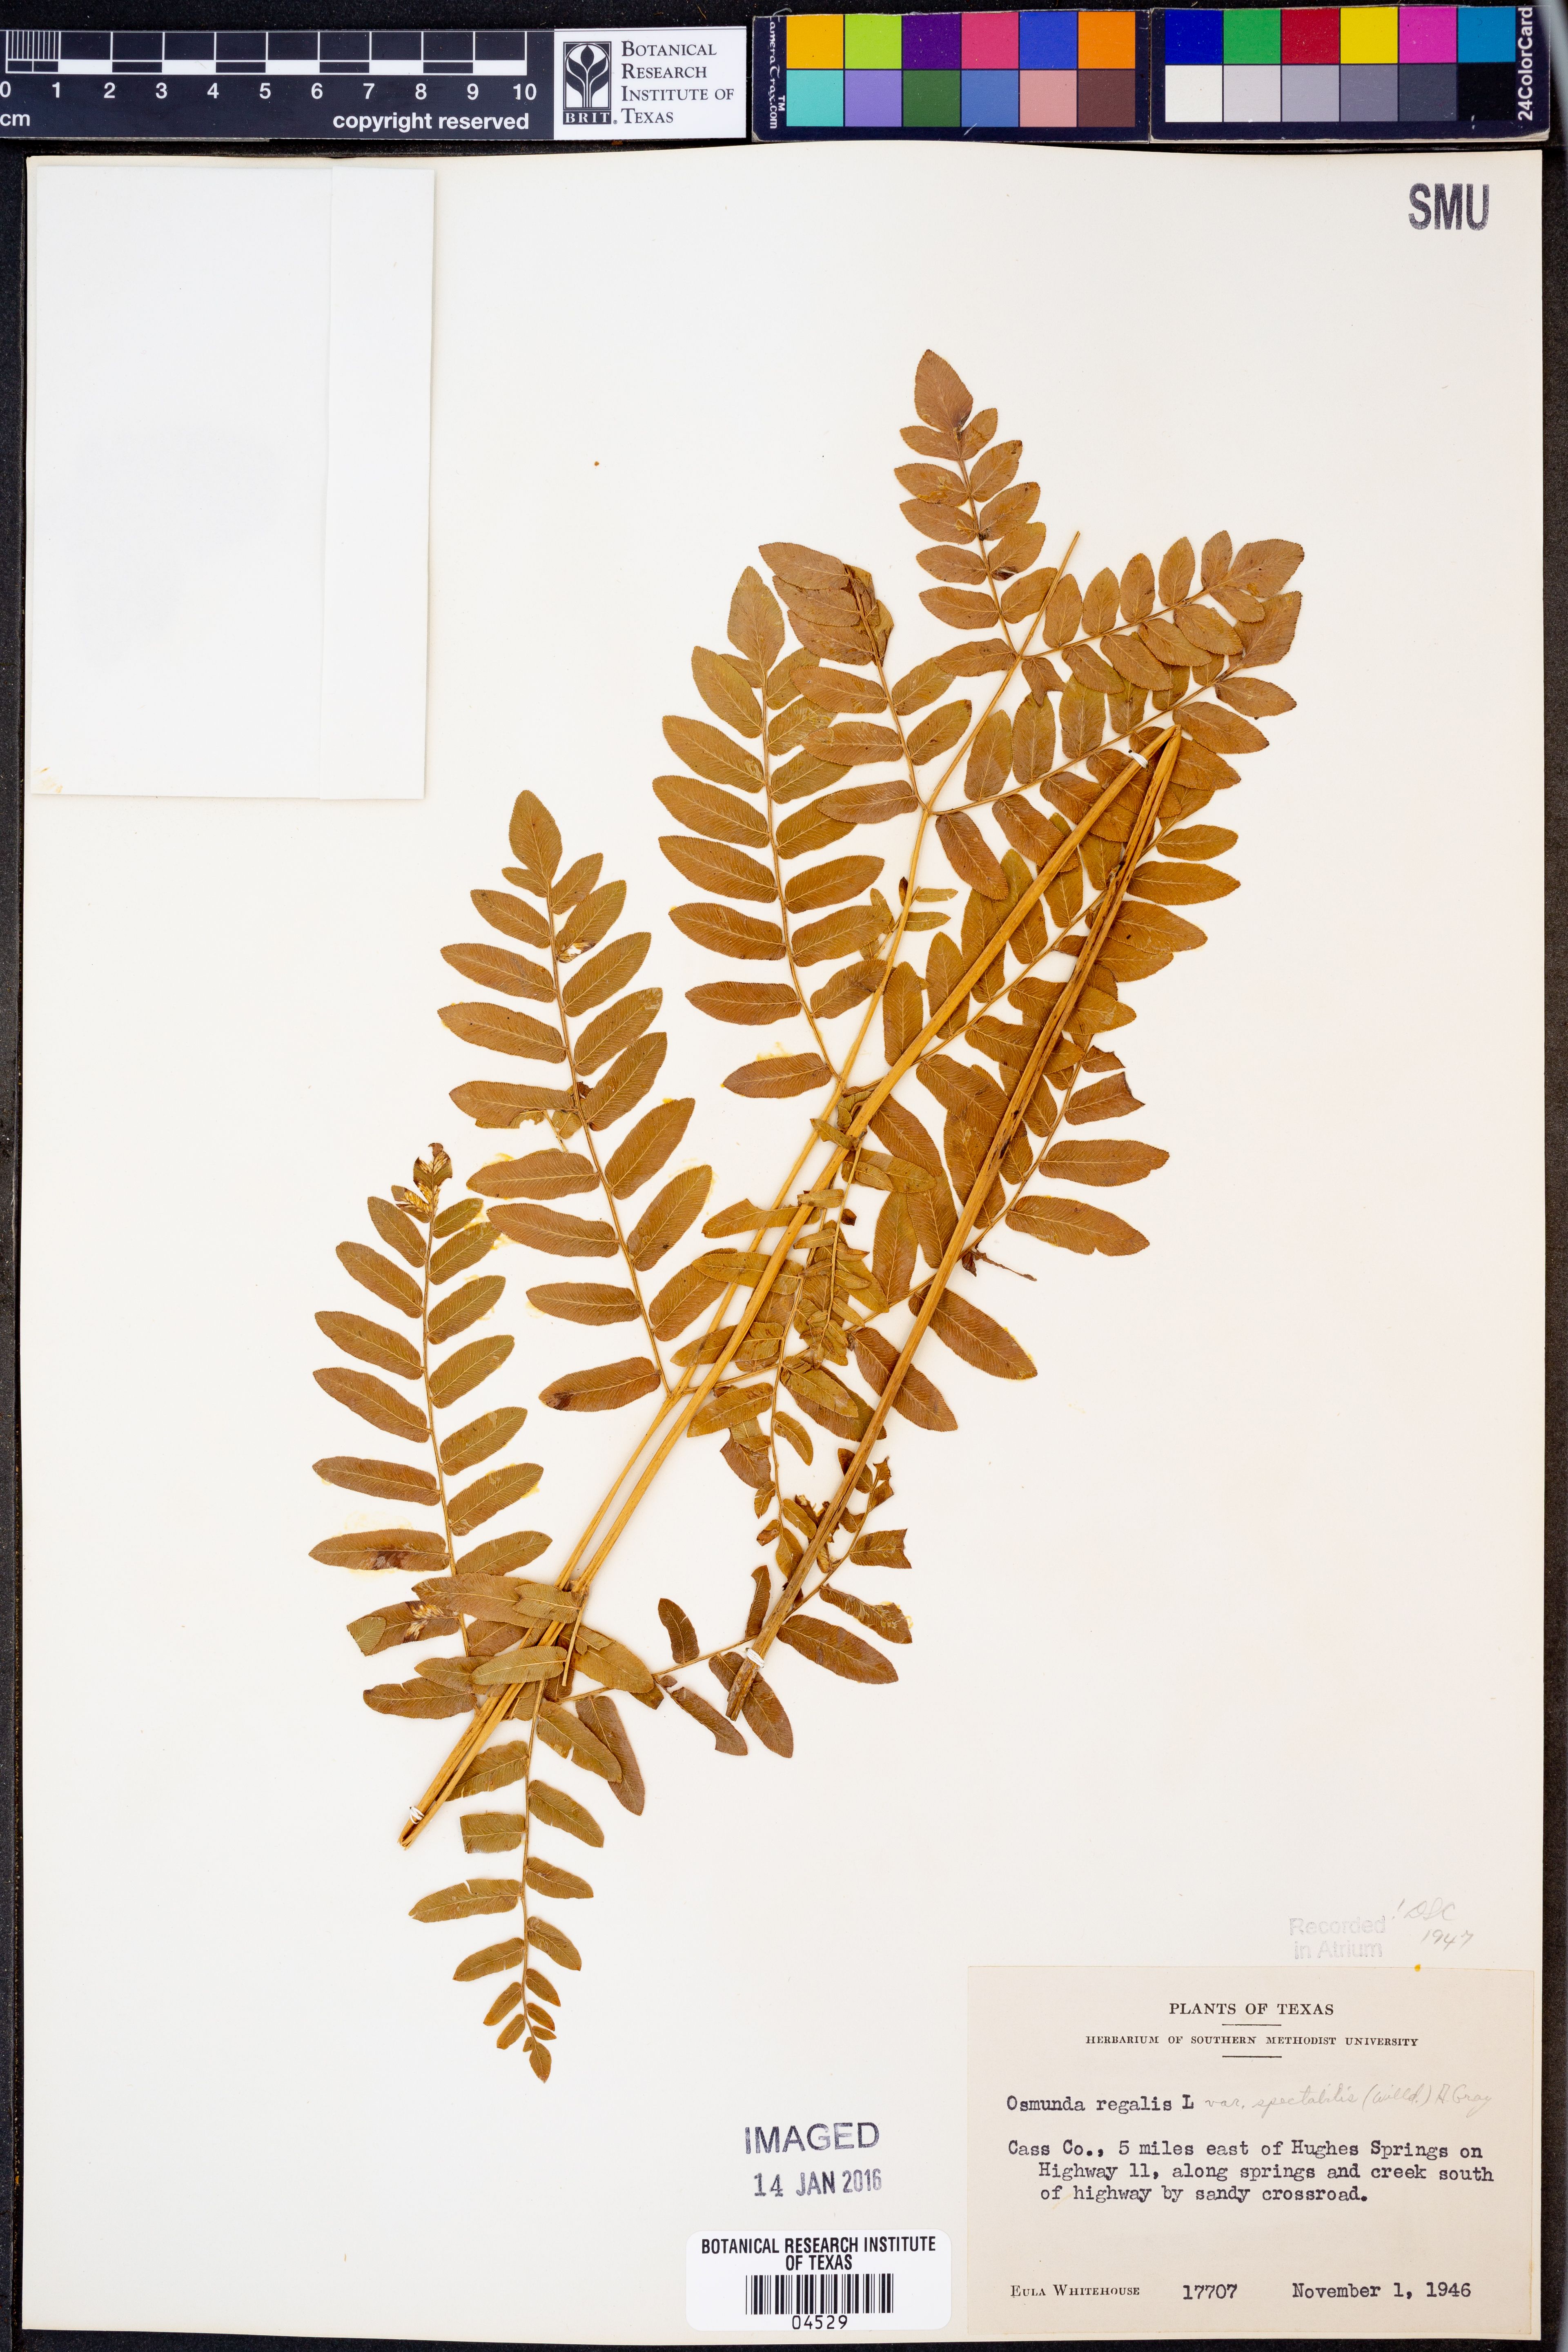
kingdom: Plantae
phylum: Tracheophyta
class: Polypodiopsida
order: Osmundales
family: Osmundaceae
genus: Osmunda
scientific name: Osmunda spectabilis
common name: American royal fern
